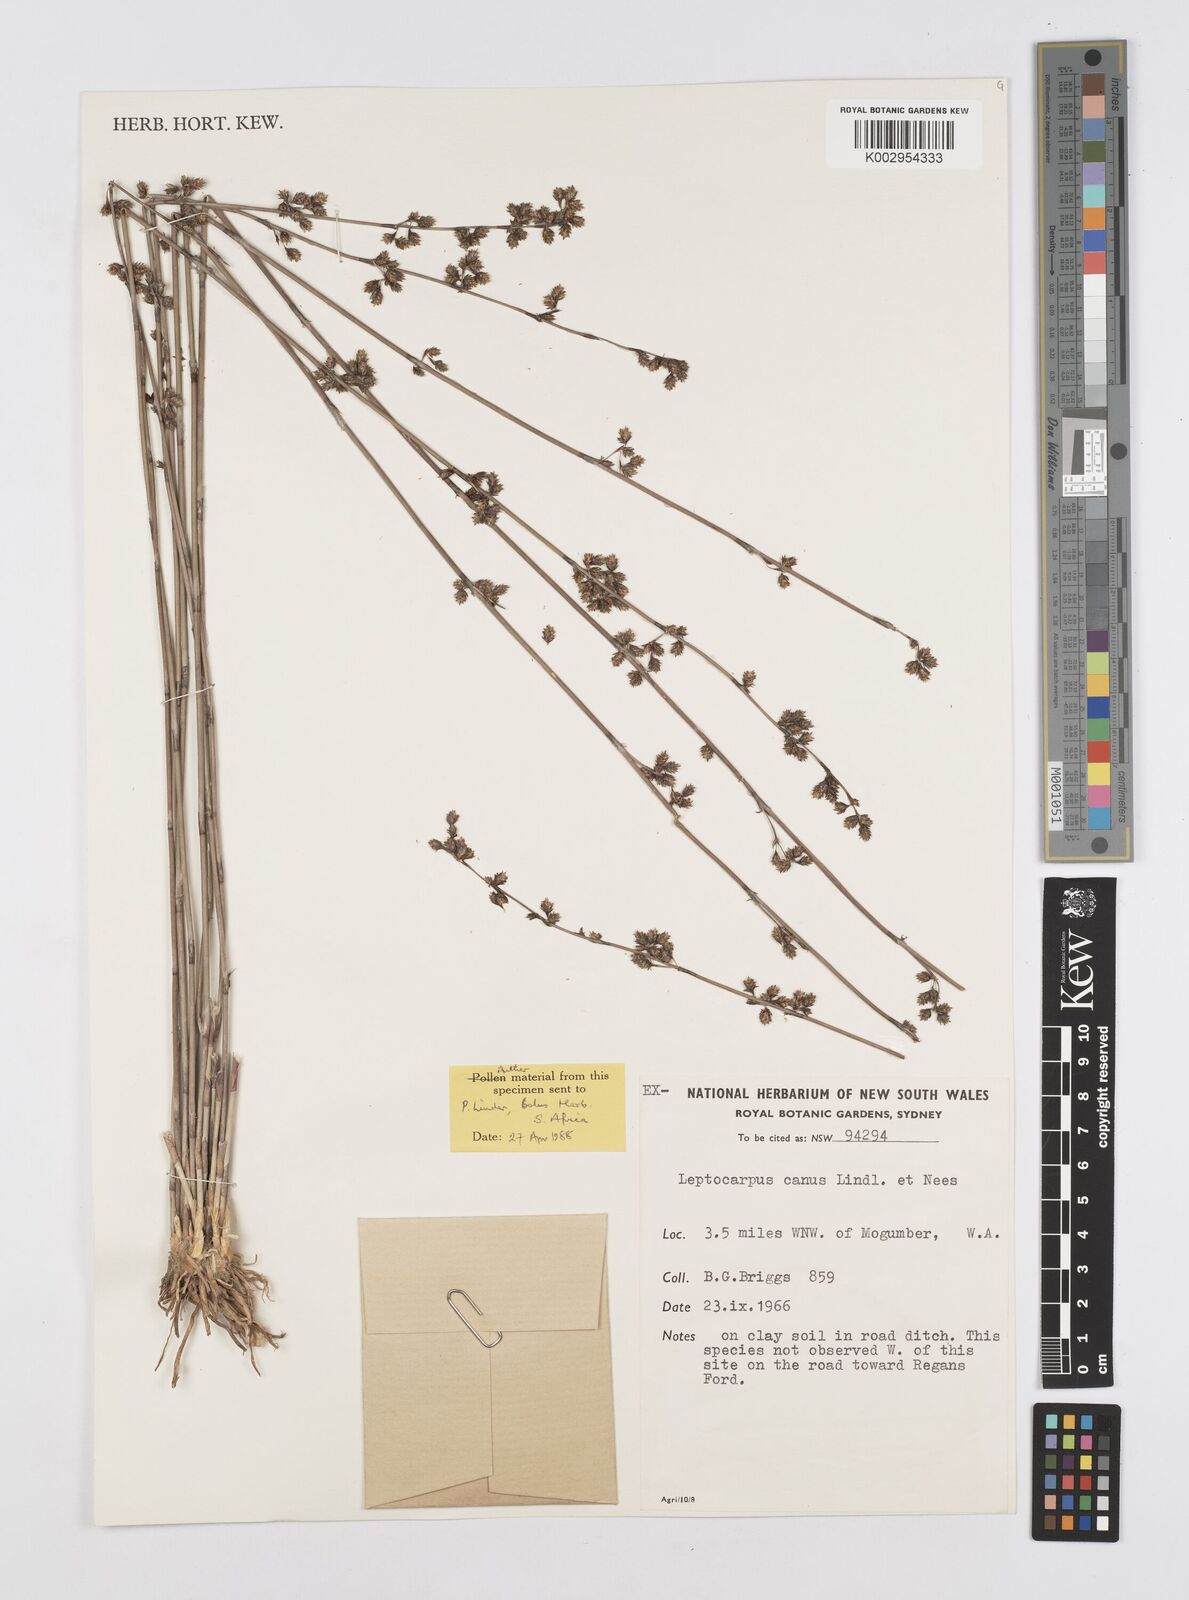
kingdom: Plantae
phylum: Tracheophyta
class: Liliopsida
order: Poales
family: Restionaceae
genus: Leptocarpus
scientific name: Leptocarpus canus
